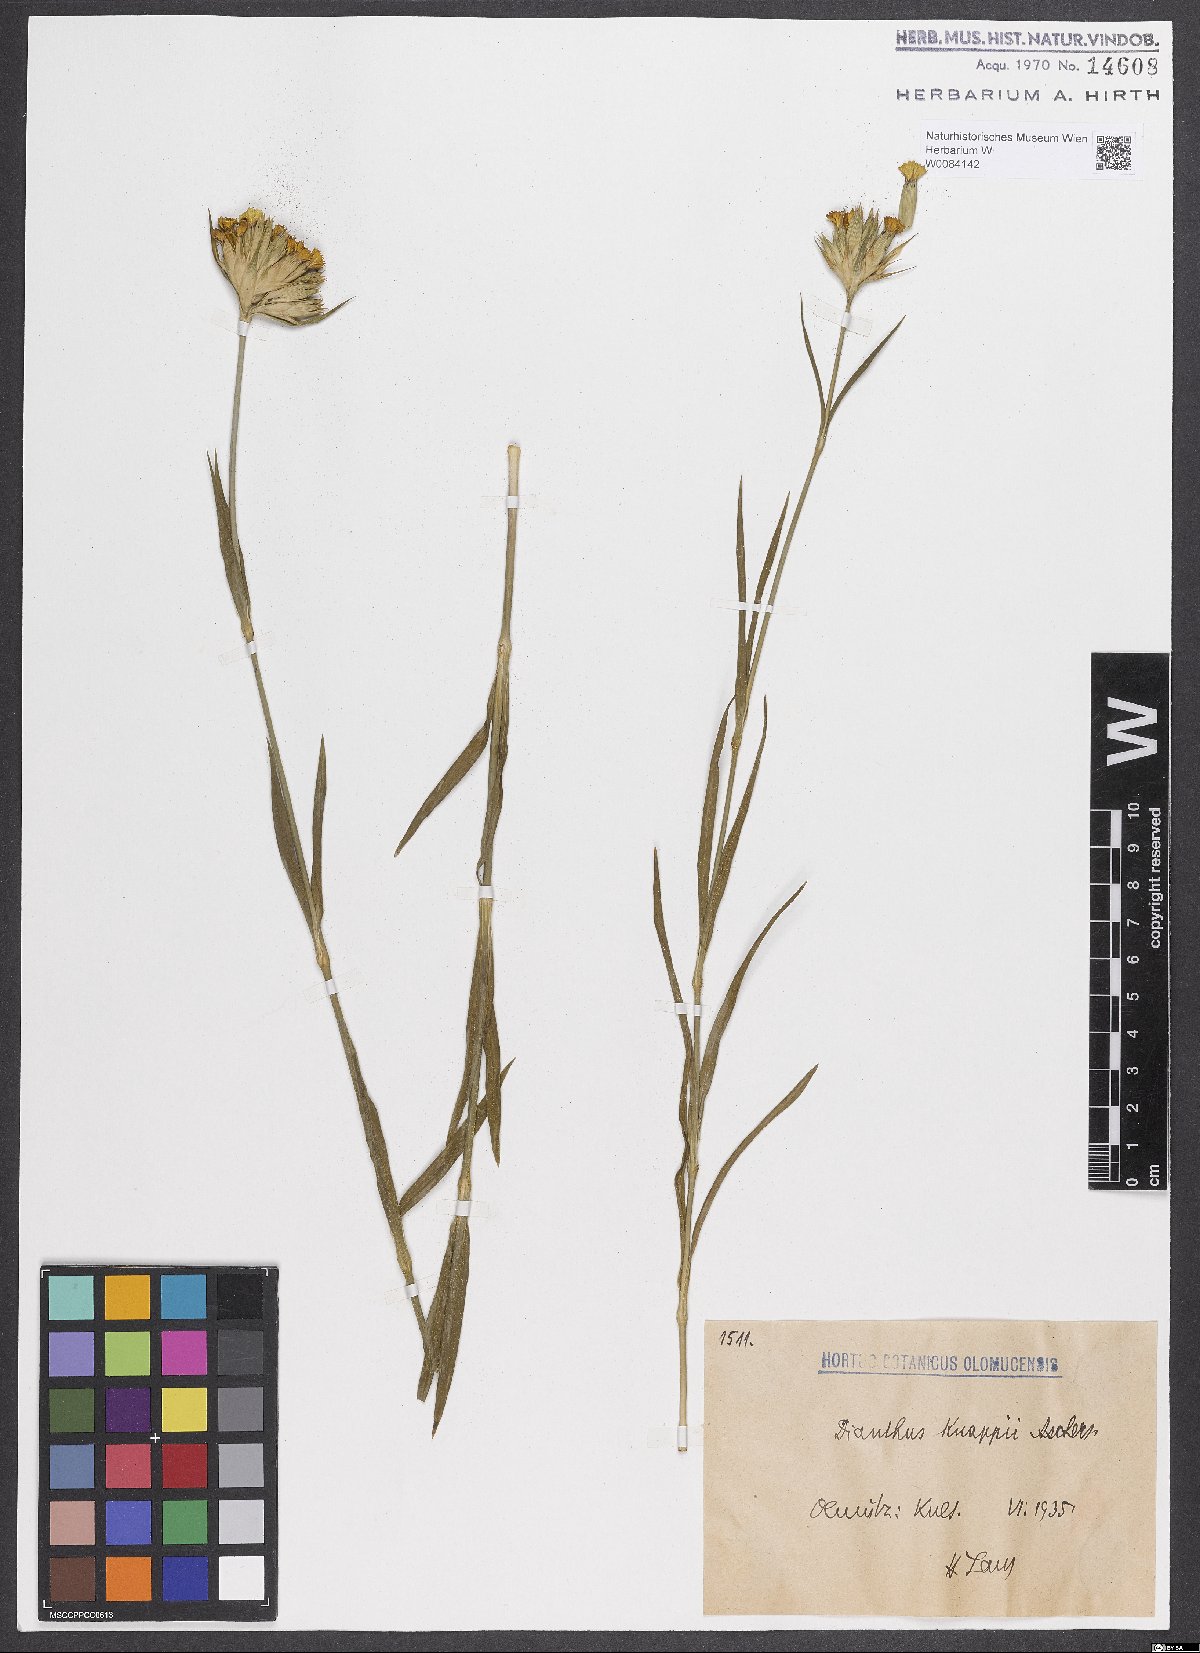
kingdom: Plantae
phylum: Tracheophyta
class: Magnoliopsida
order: Caryophyllales
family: Caryophyllaceae
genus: Dianthus
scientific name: Dianthus balbisii
